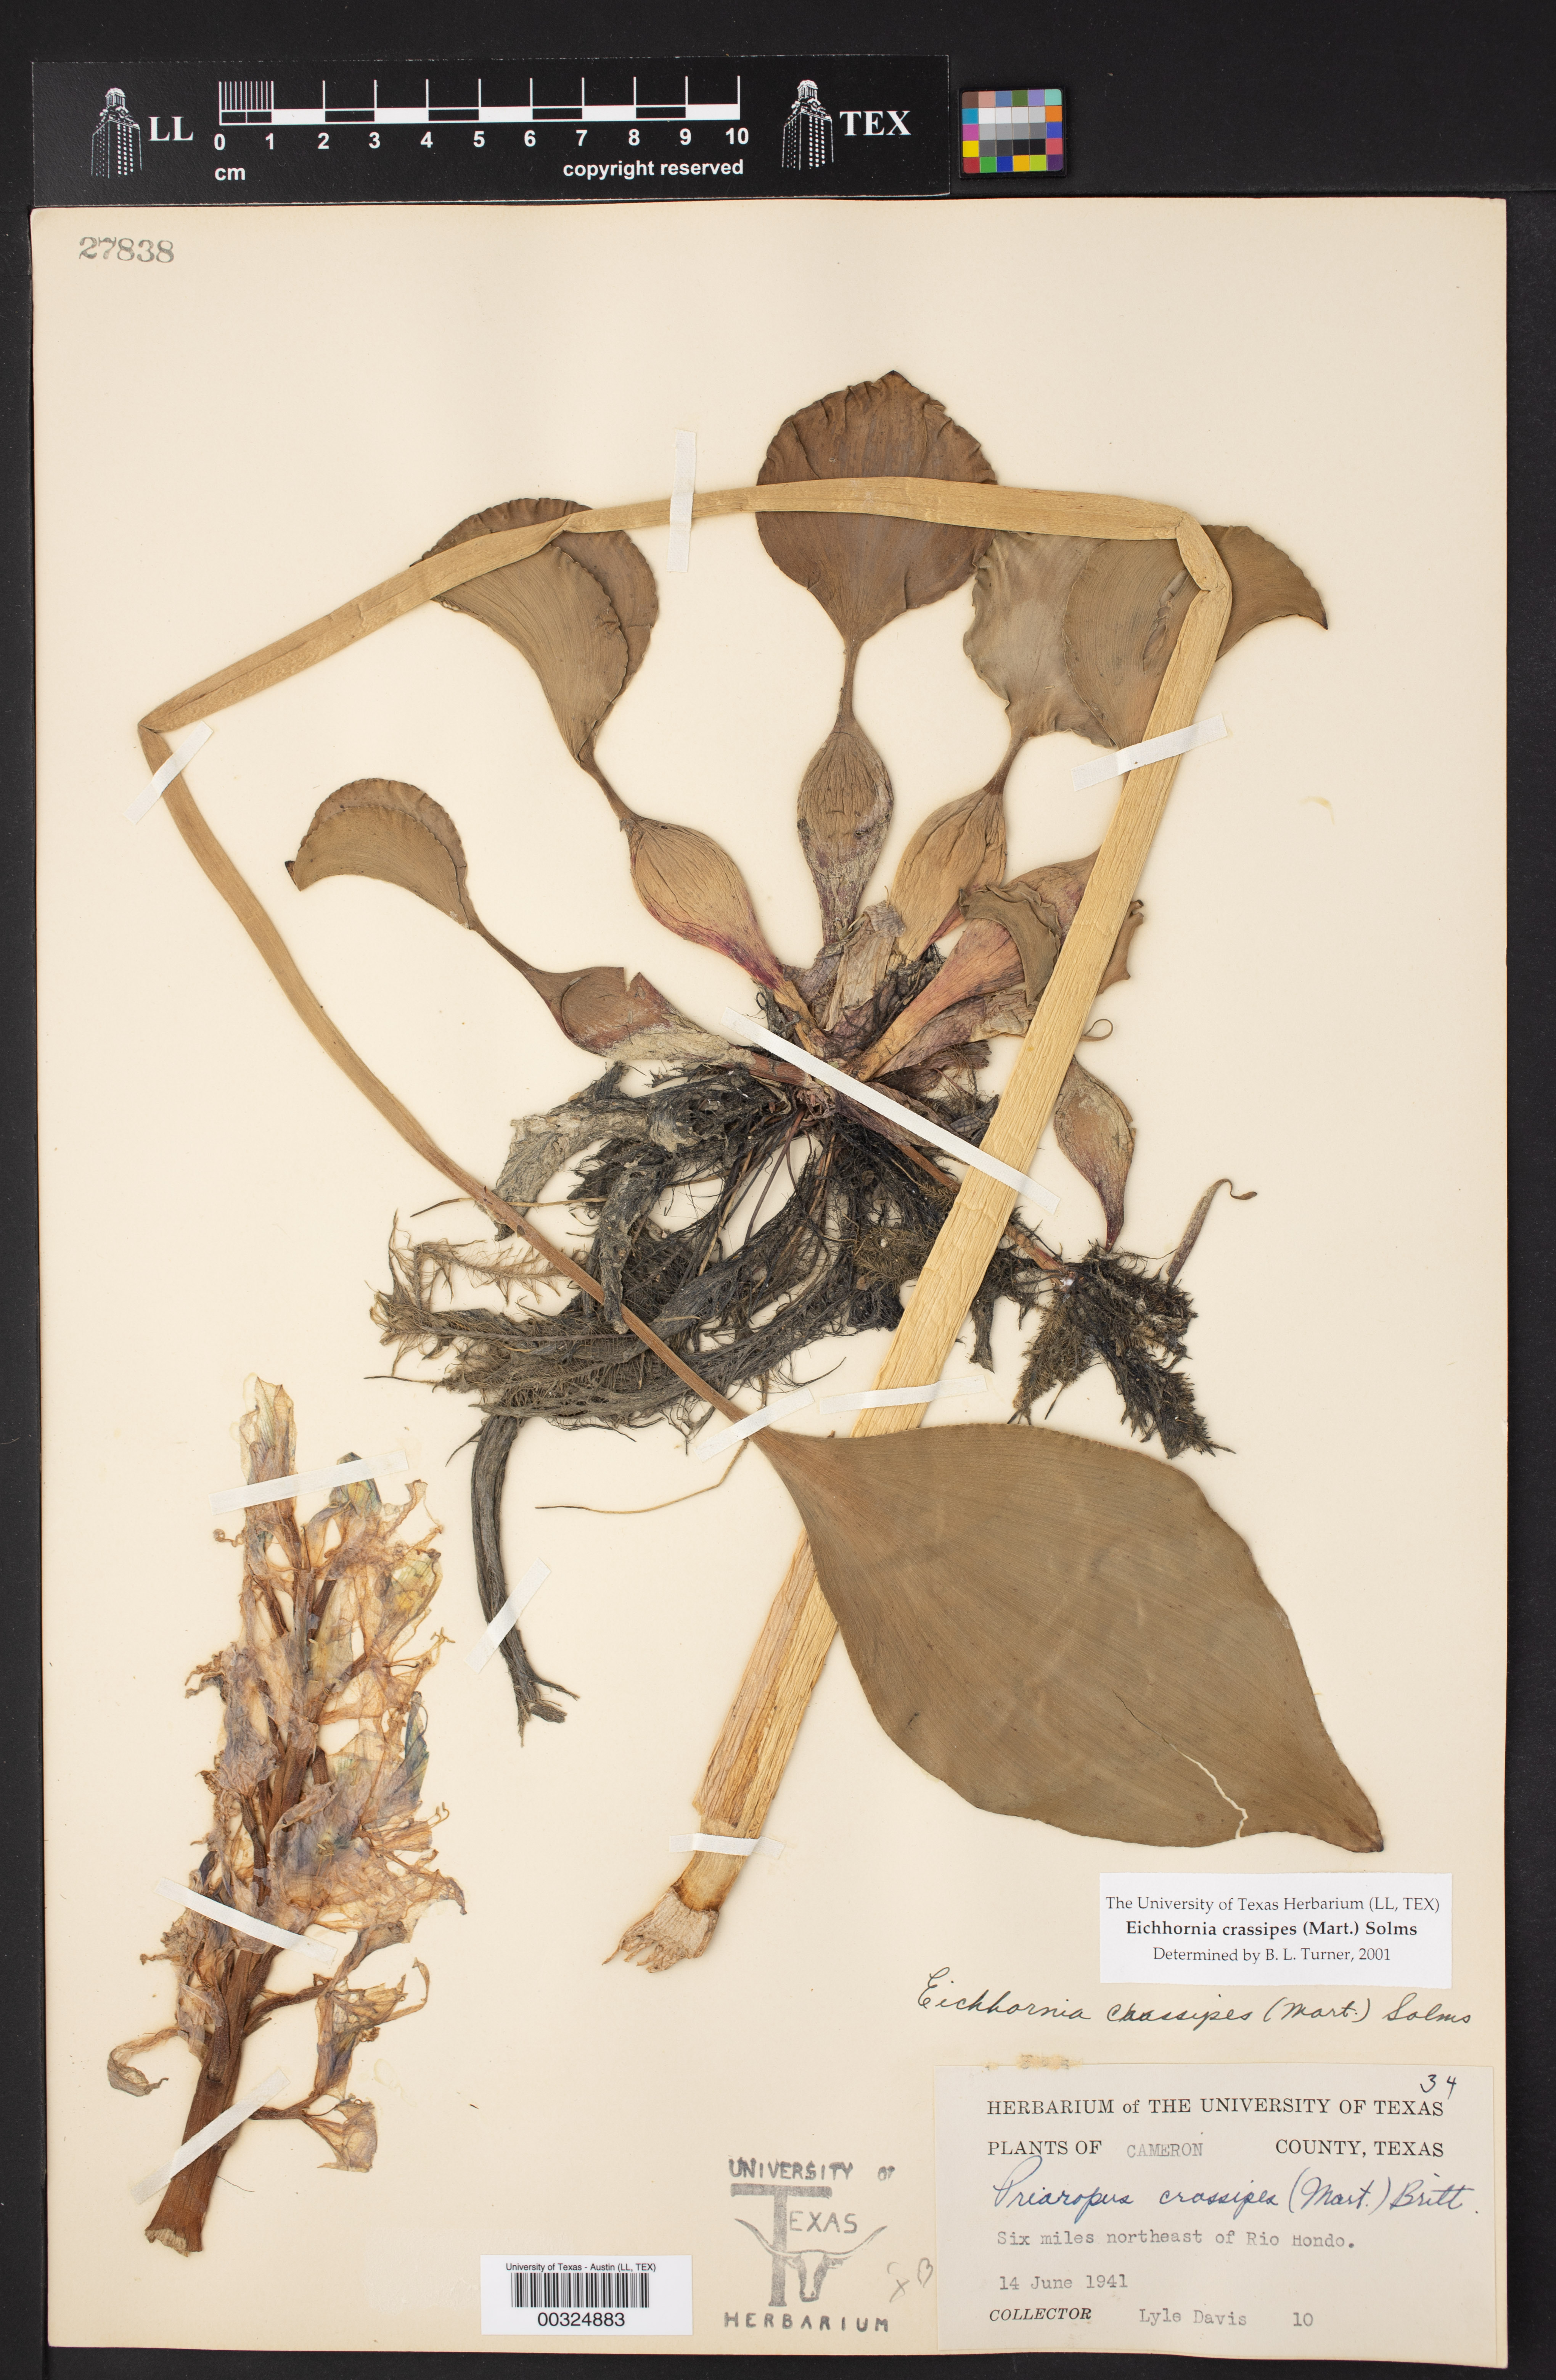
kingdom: Plantae
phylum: Tracheophyta
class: Liliopsida
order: Commelinales
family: Pontederiaceae
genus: Pontederia
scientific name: Pontederia crassipes
